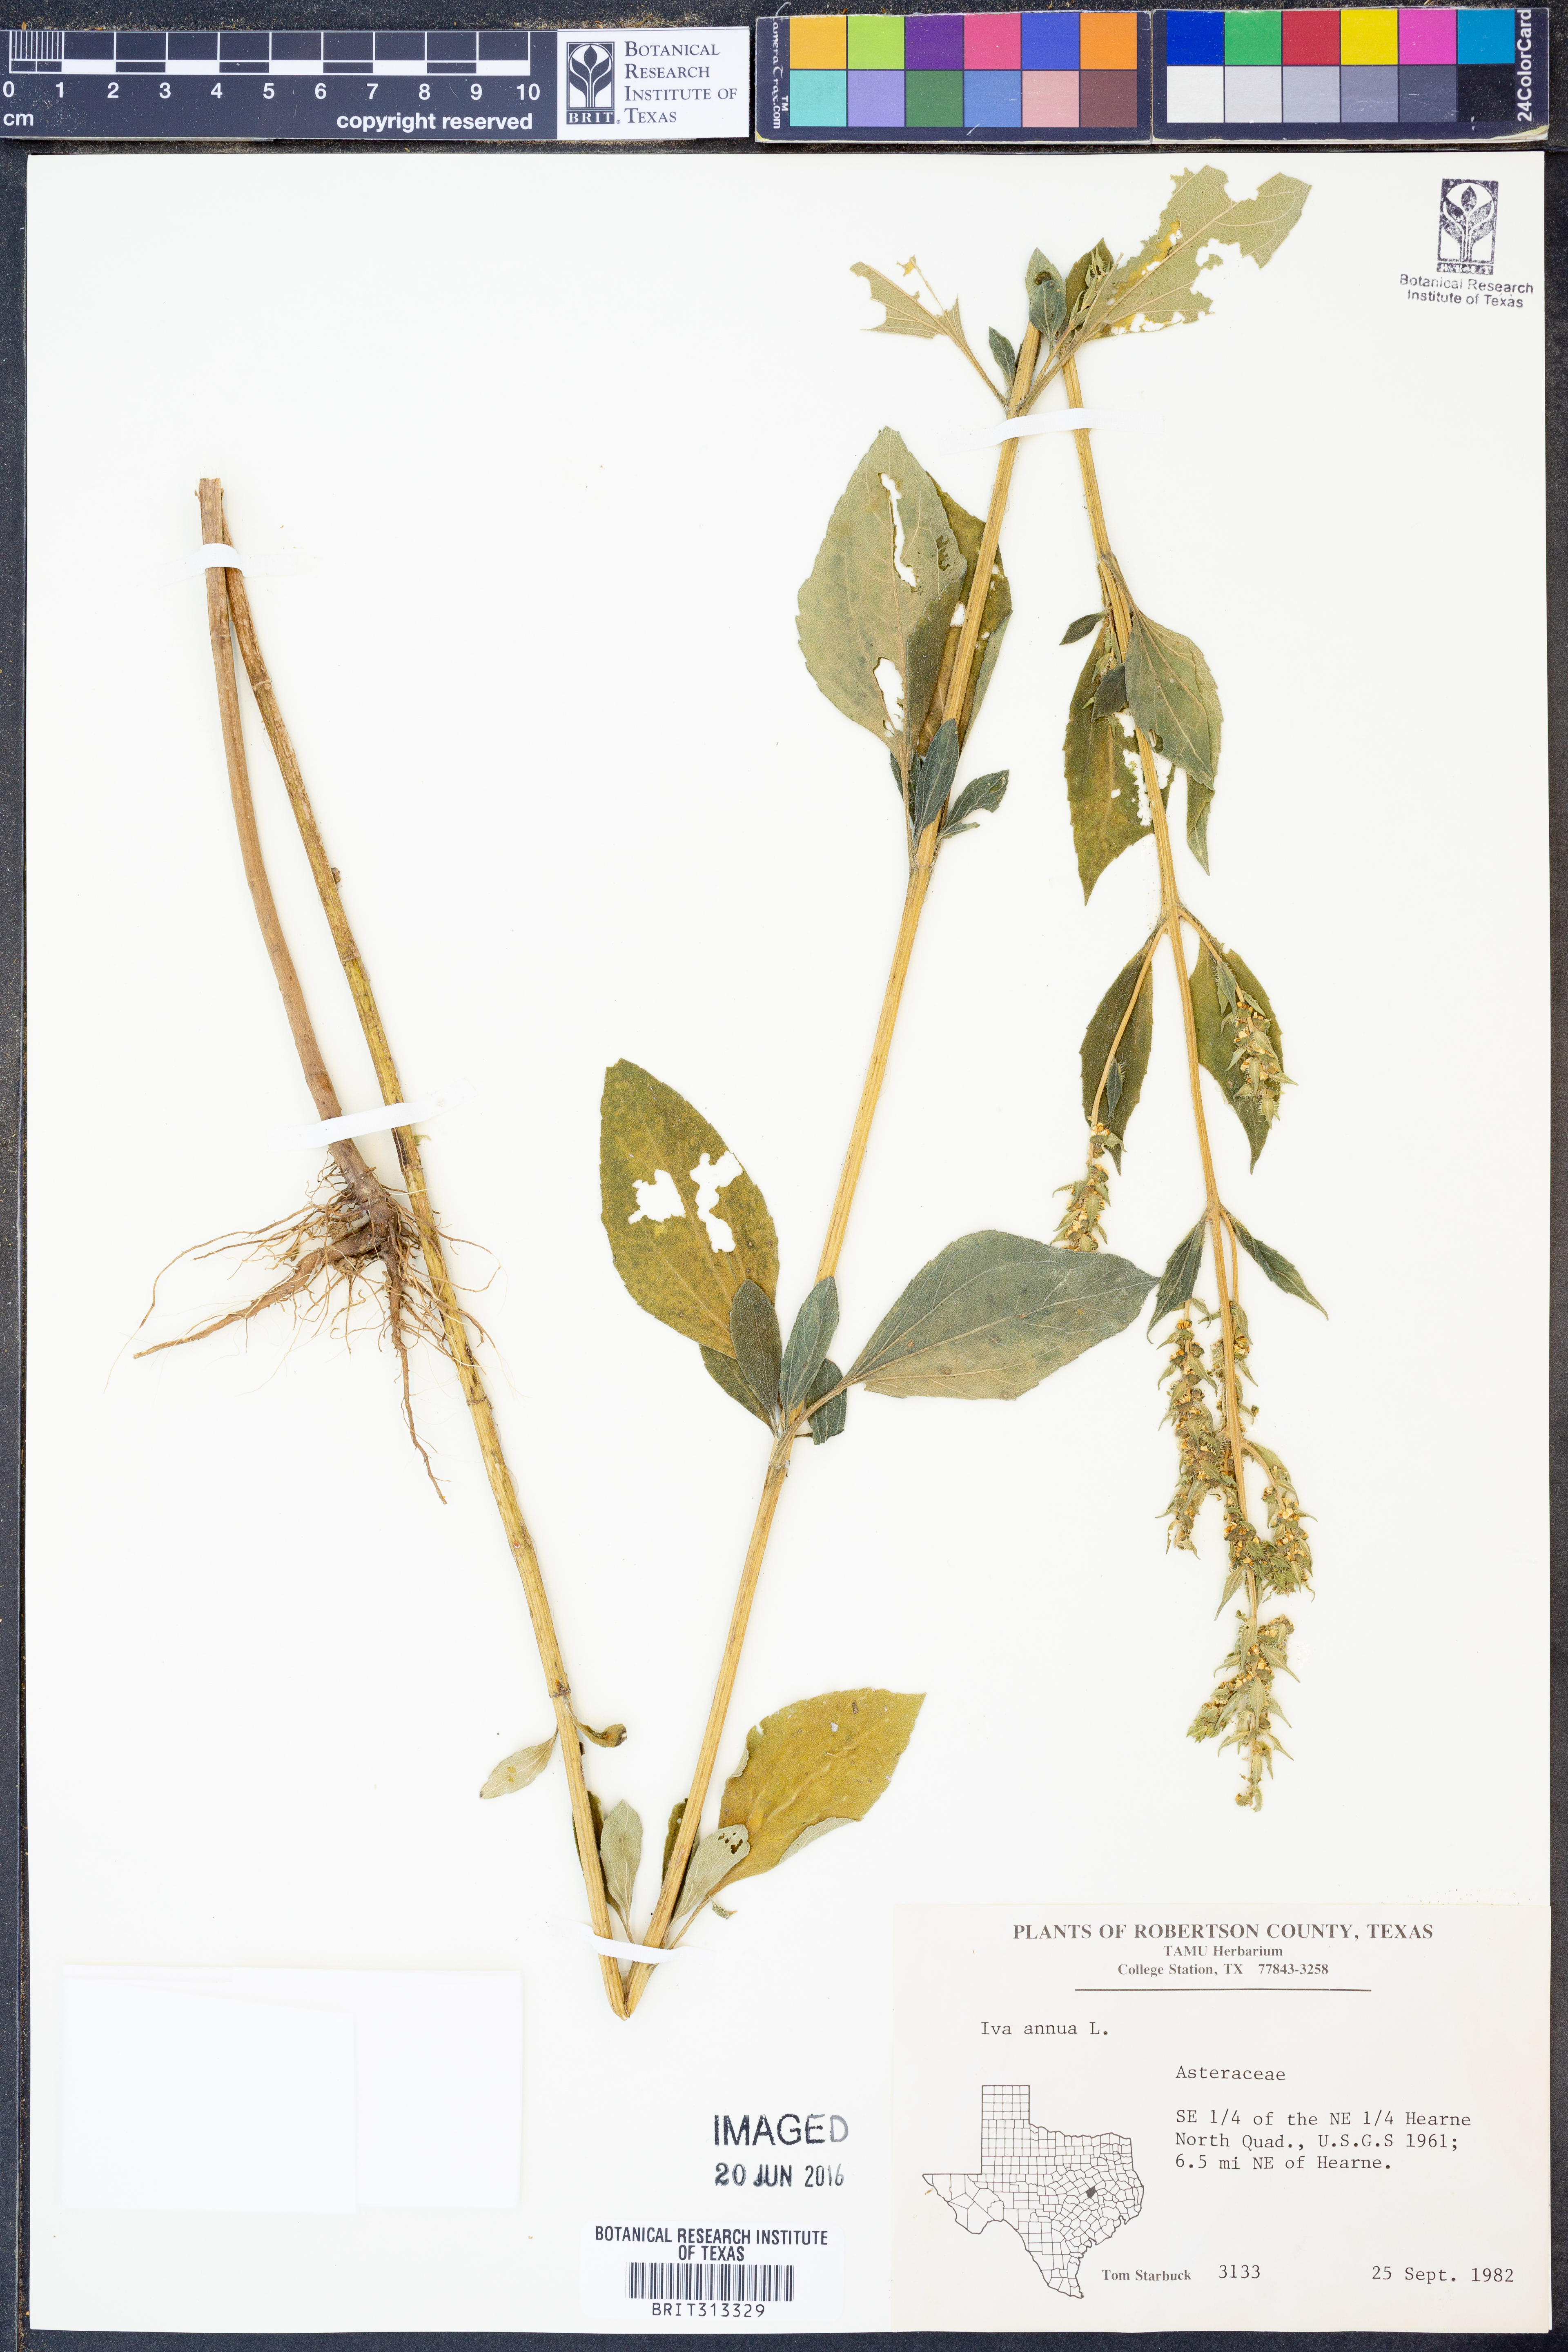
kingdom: Plantae
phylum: Tracheophyta
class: Magnoliopsida
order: Asterales
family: Asteraceae
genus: Iva
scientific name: Iva annua
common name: Marsh-elder
